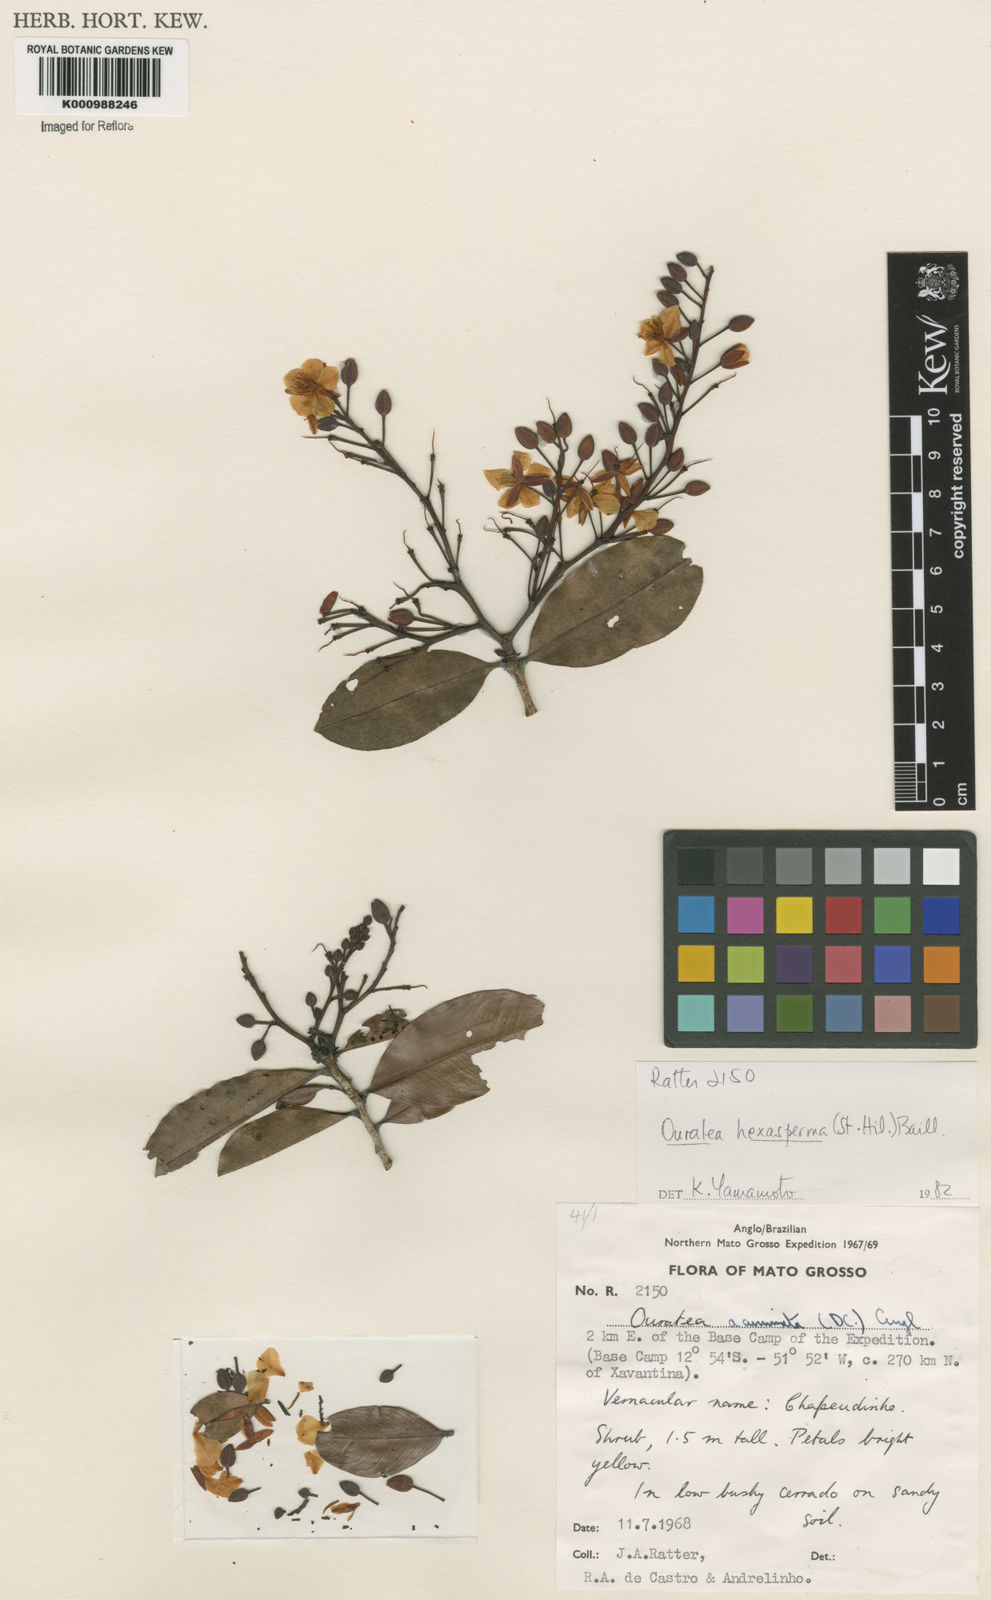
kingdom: Plantae
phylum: Tracheophyta
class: Magnoliopsida
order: Malpighiales
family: Ochnaceae
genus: Ouratea
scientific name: Ouratea hexasperma
